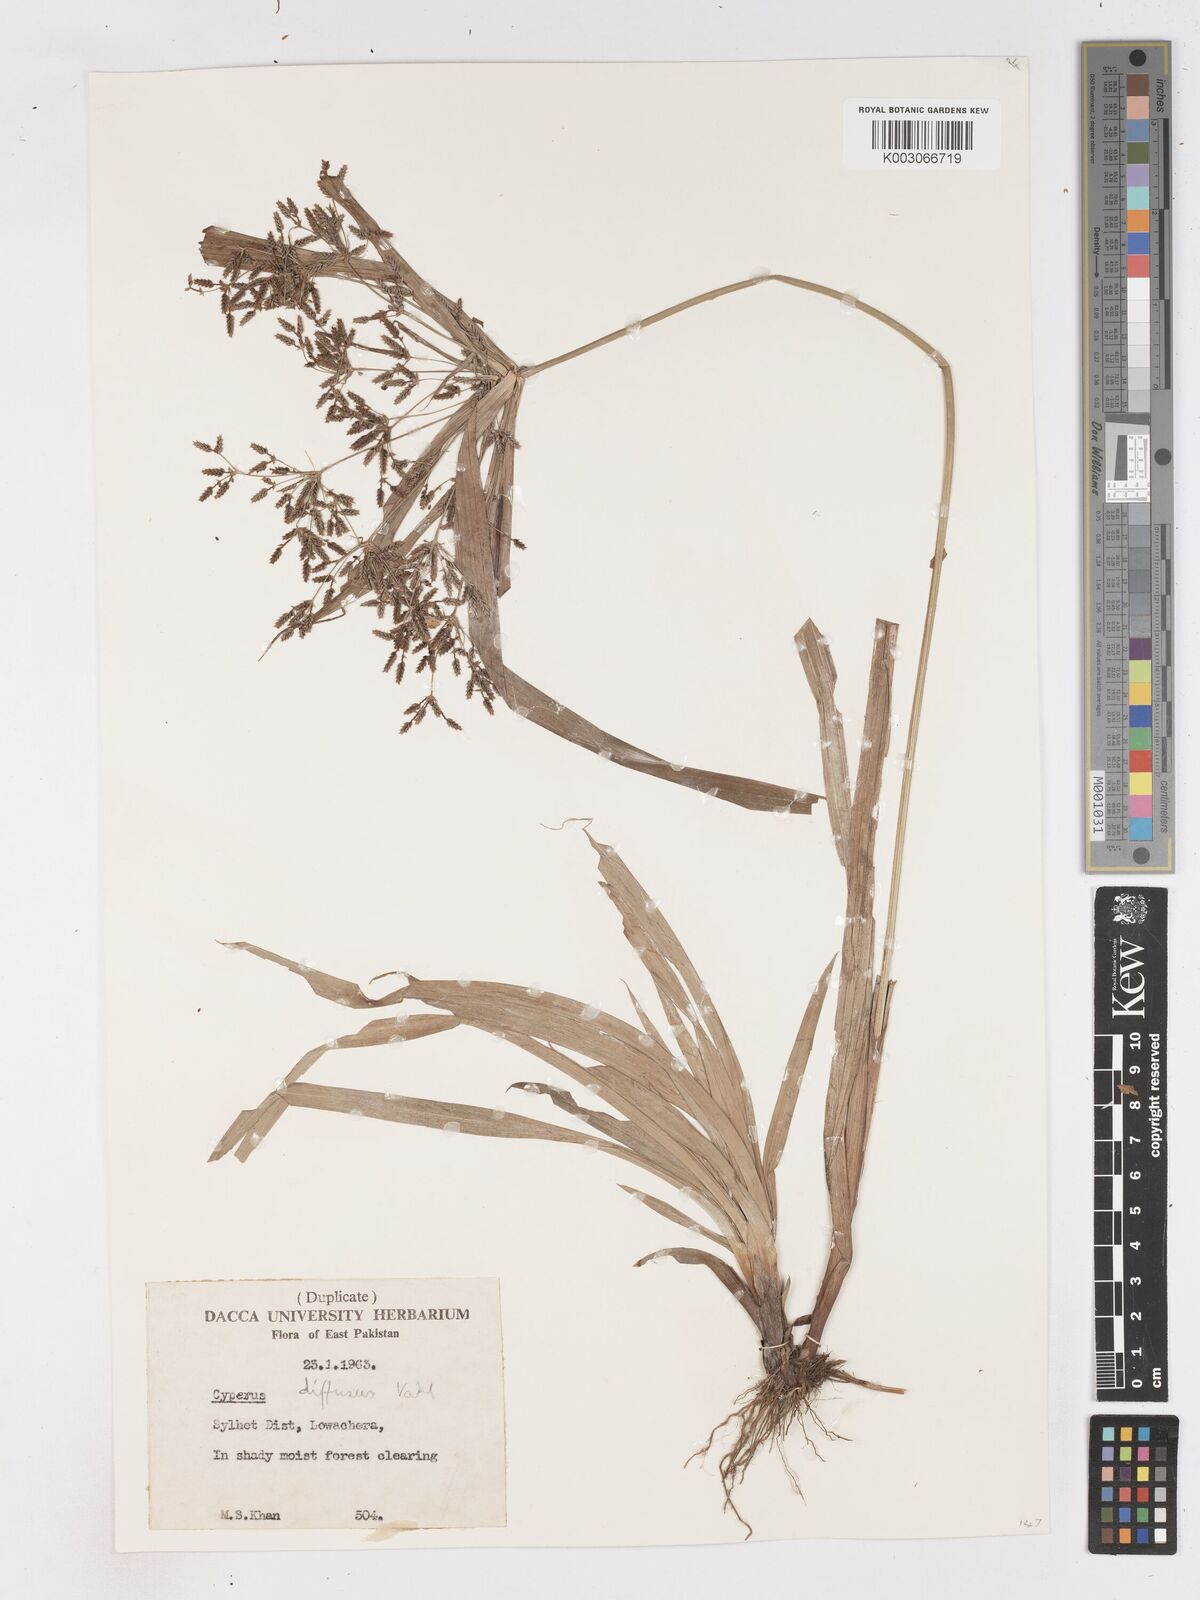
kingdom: Plantae
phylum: Tracheophyta
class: Liliopsida
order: Poales
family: Cyperaceae
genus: Cyperus
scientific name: Cyperus diffusus
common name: Dwarf umbrella grass
